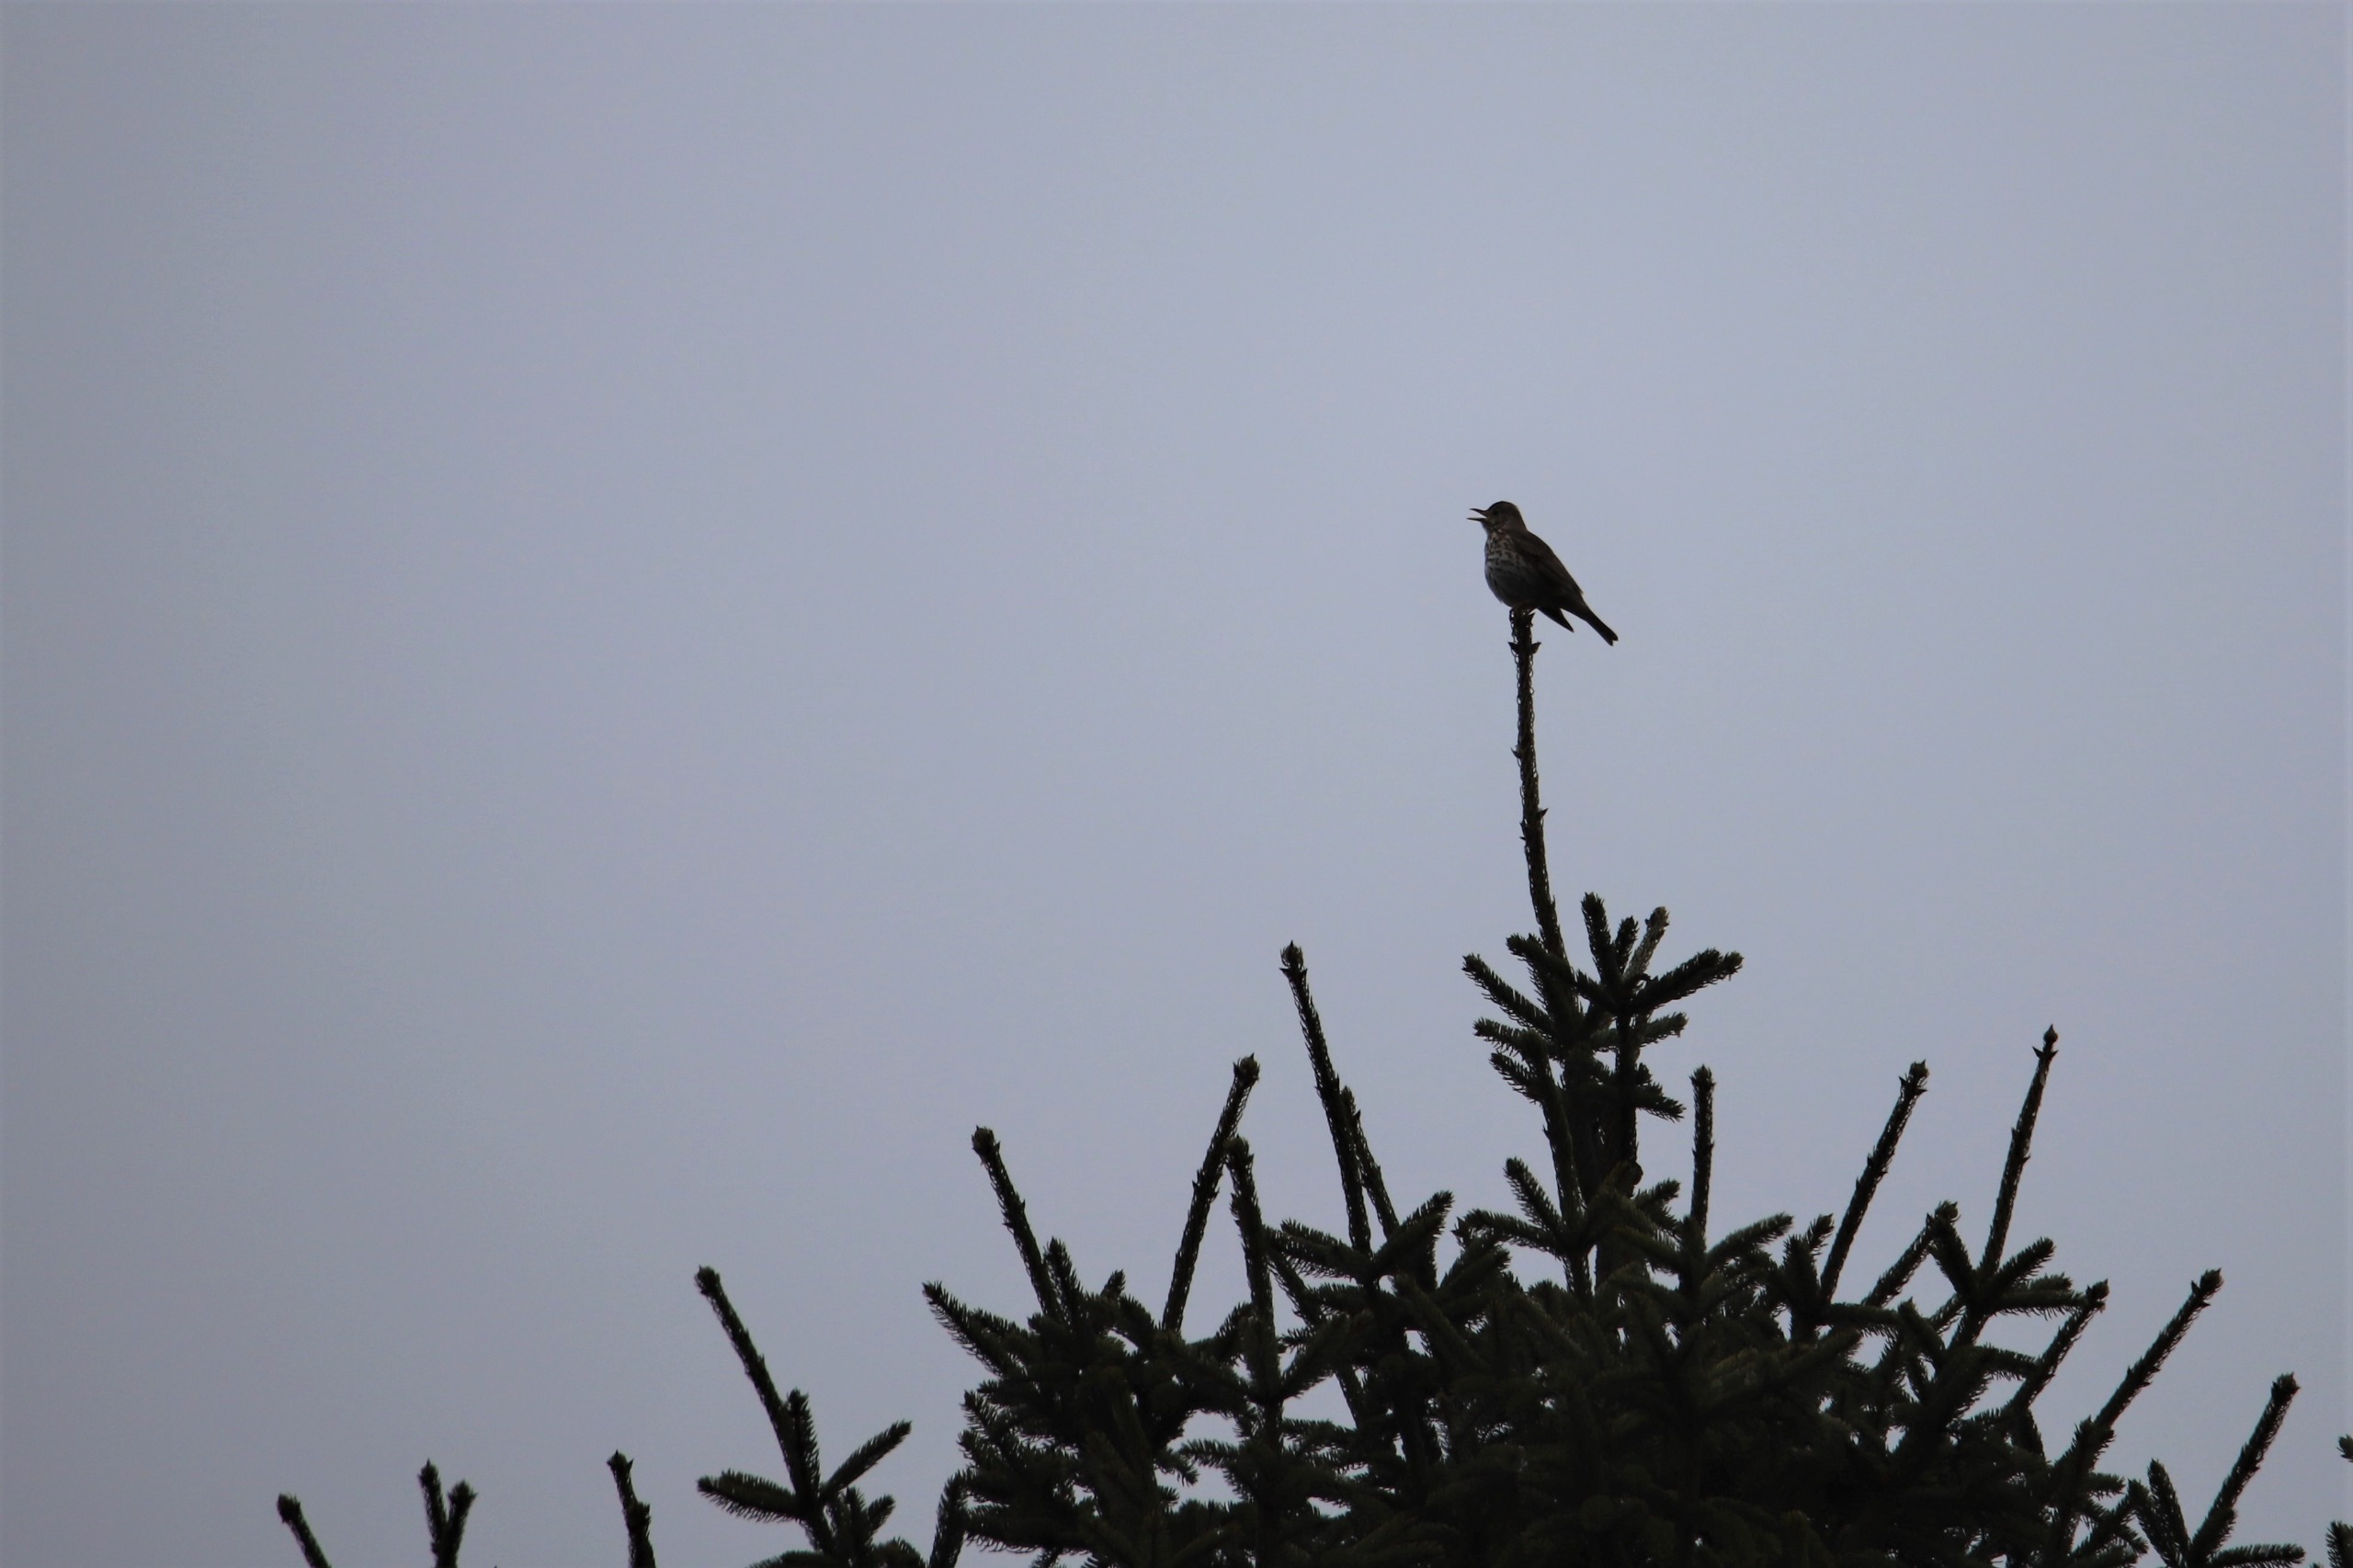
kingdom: Animalia
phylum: Chordata
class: Aves
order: Passeriformes
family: Turdidae
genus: Turdus
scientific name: Turdus philomelos
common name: Sangdrossel
